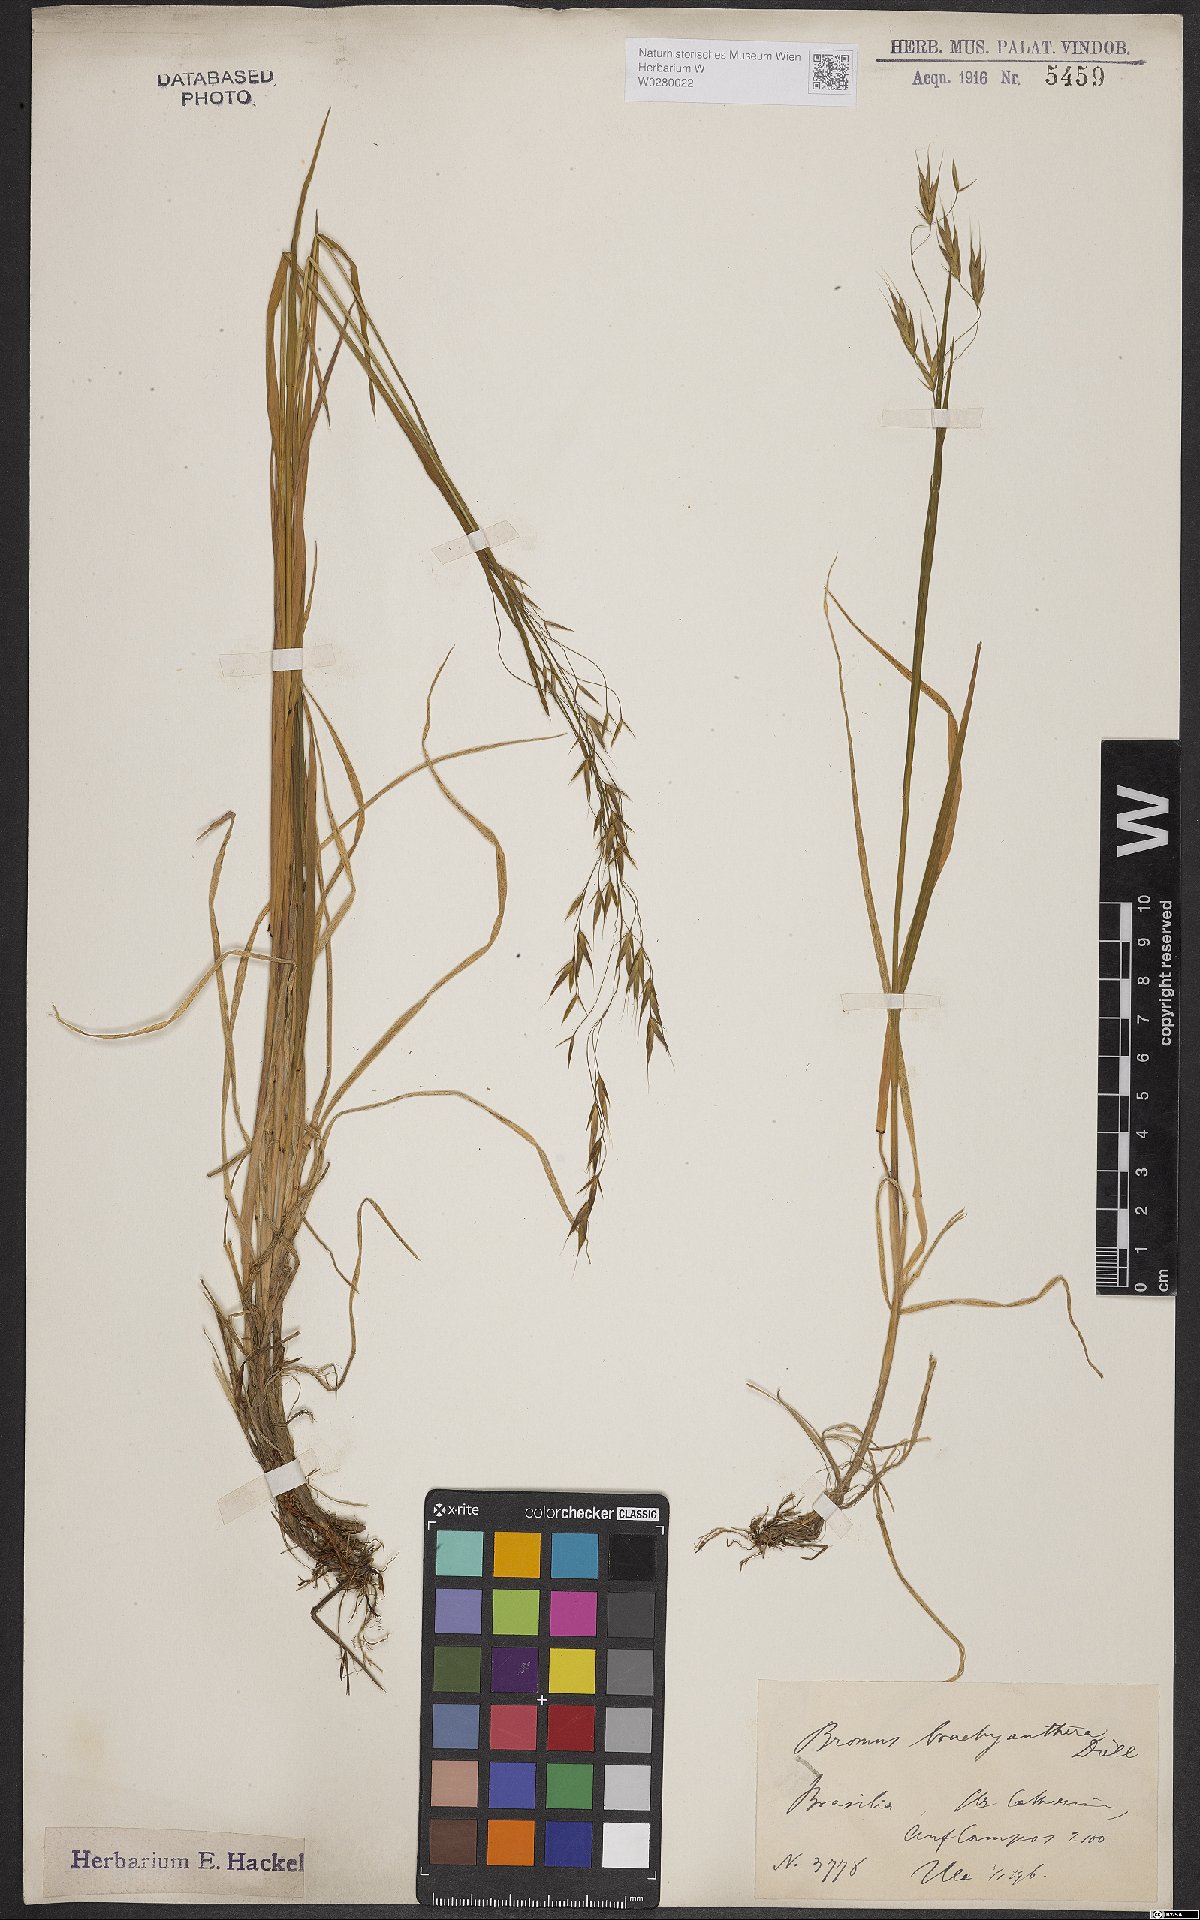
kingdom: Plantae
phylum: Tracheophyta
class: Liliopsida
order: Poales
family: Poaceae
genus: Bromus
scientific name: Bromus brachyantherus
